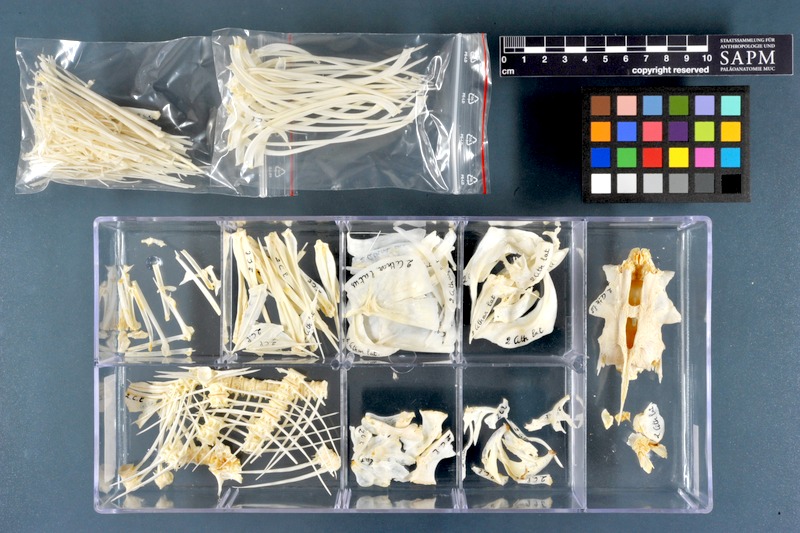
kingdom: Animalia
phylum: Chordata
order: Characiformes
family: Citharinidae
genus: Citharinus
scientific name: Citharinus latus
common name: Moon fish
